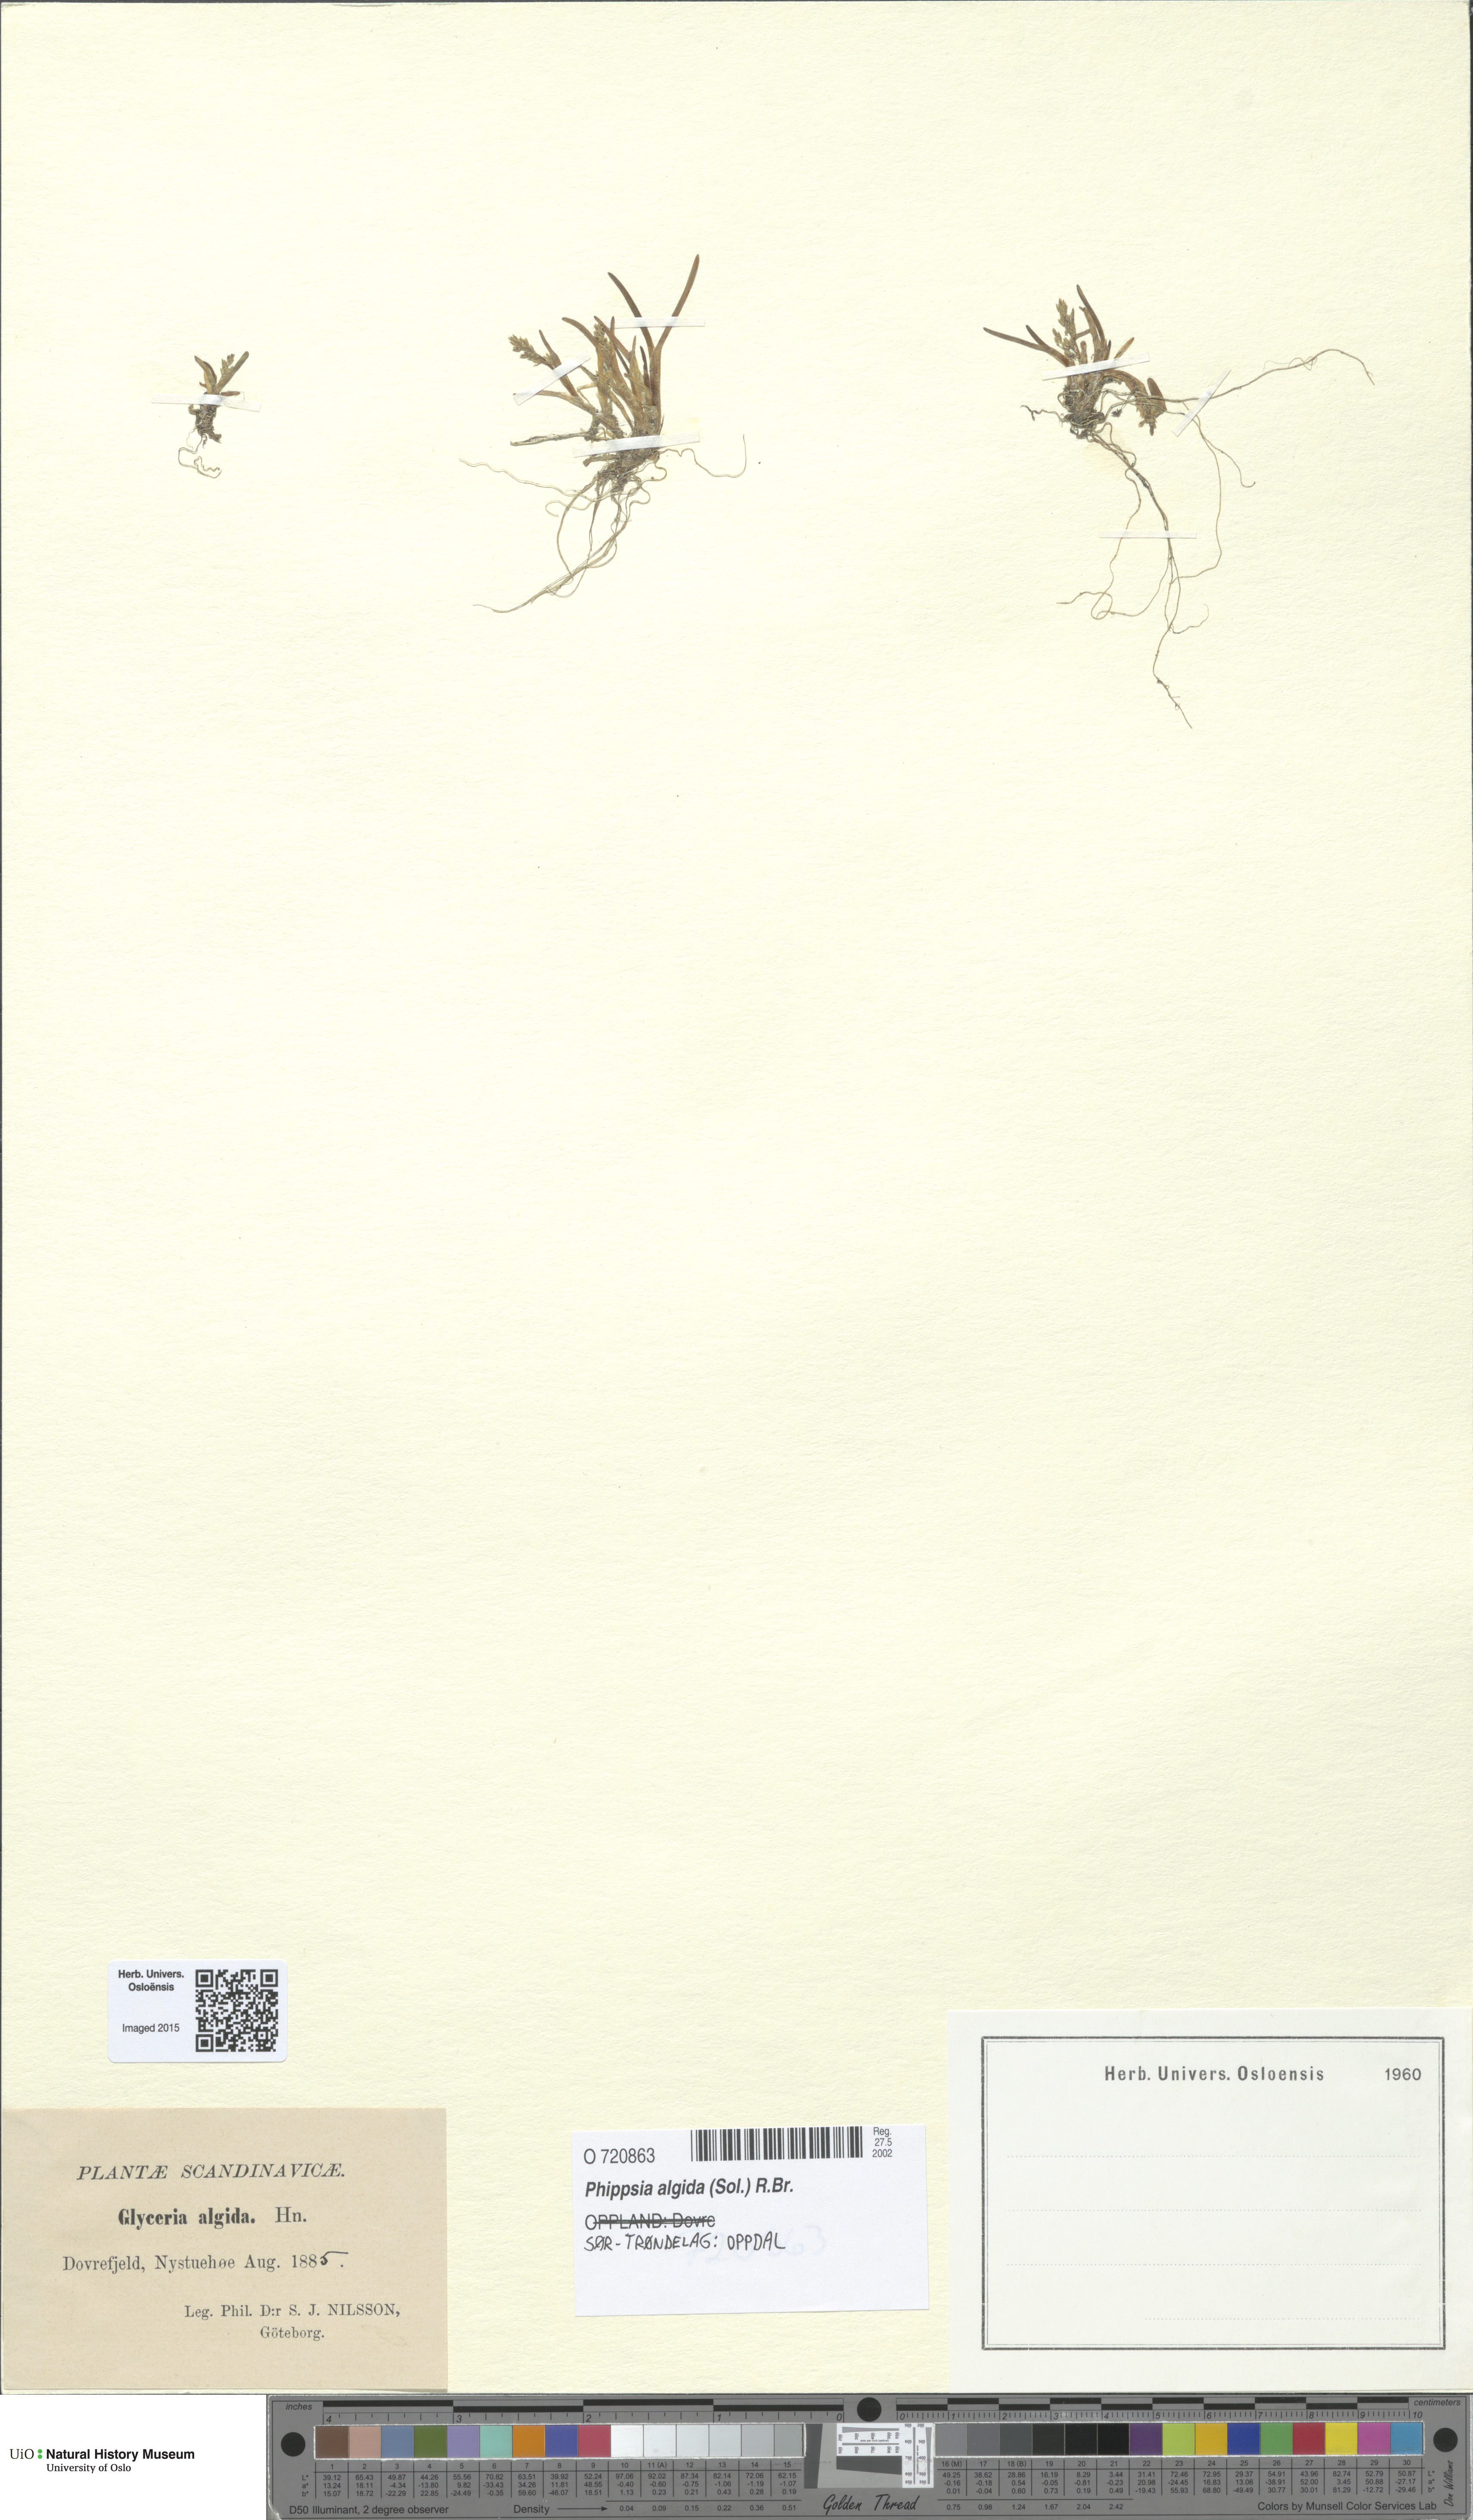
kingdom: Plantae
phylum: Tracheophyta
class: Liliopsida
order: Poales
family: Poaceae
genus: Phippsia
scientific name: Phippsia algida
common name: Ice grass
